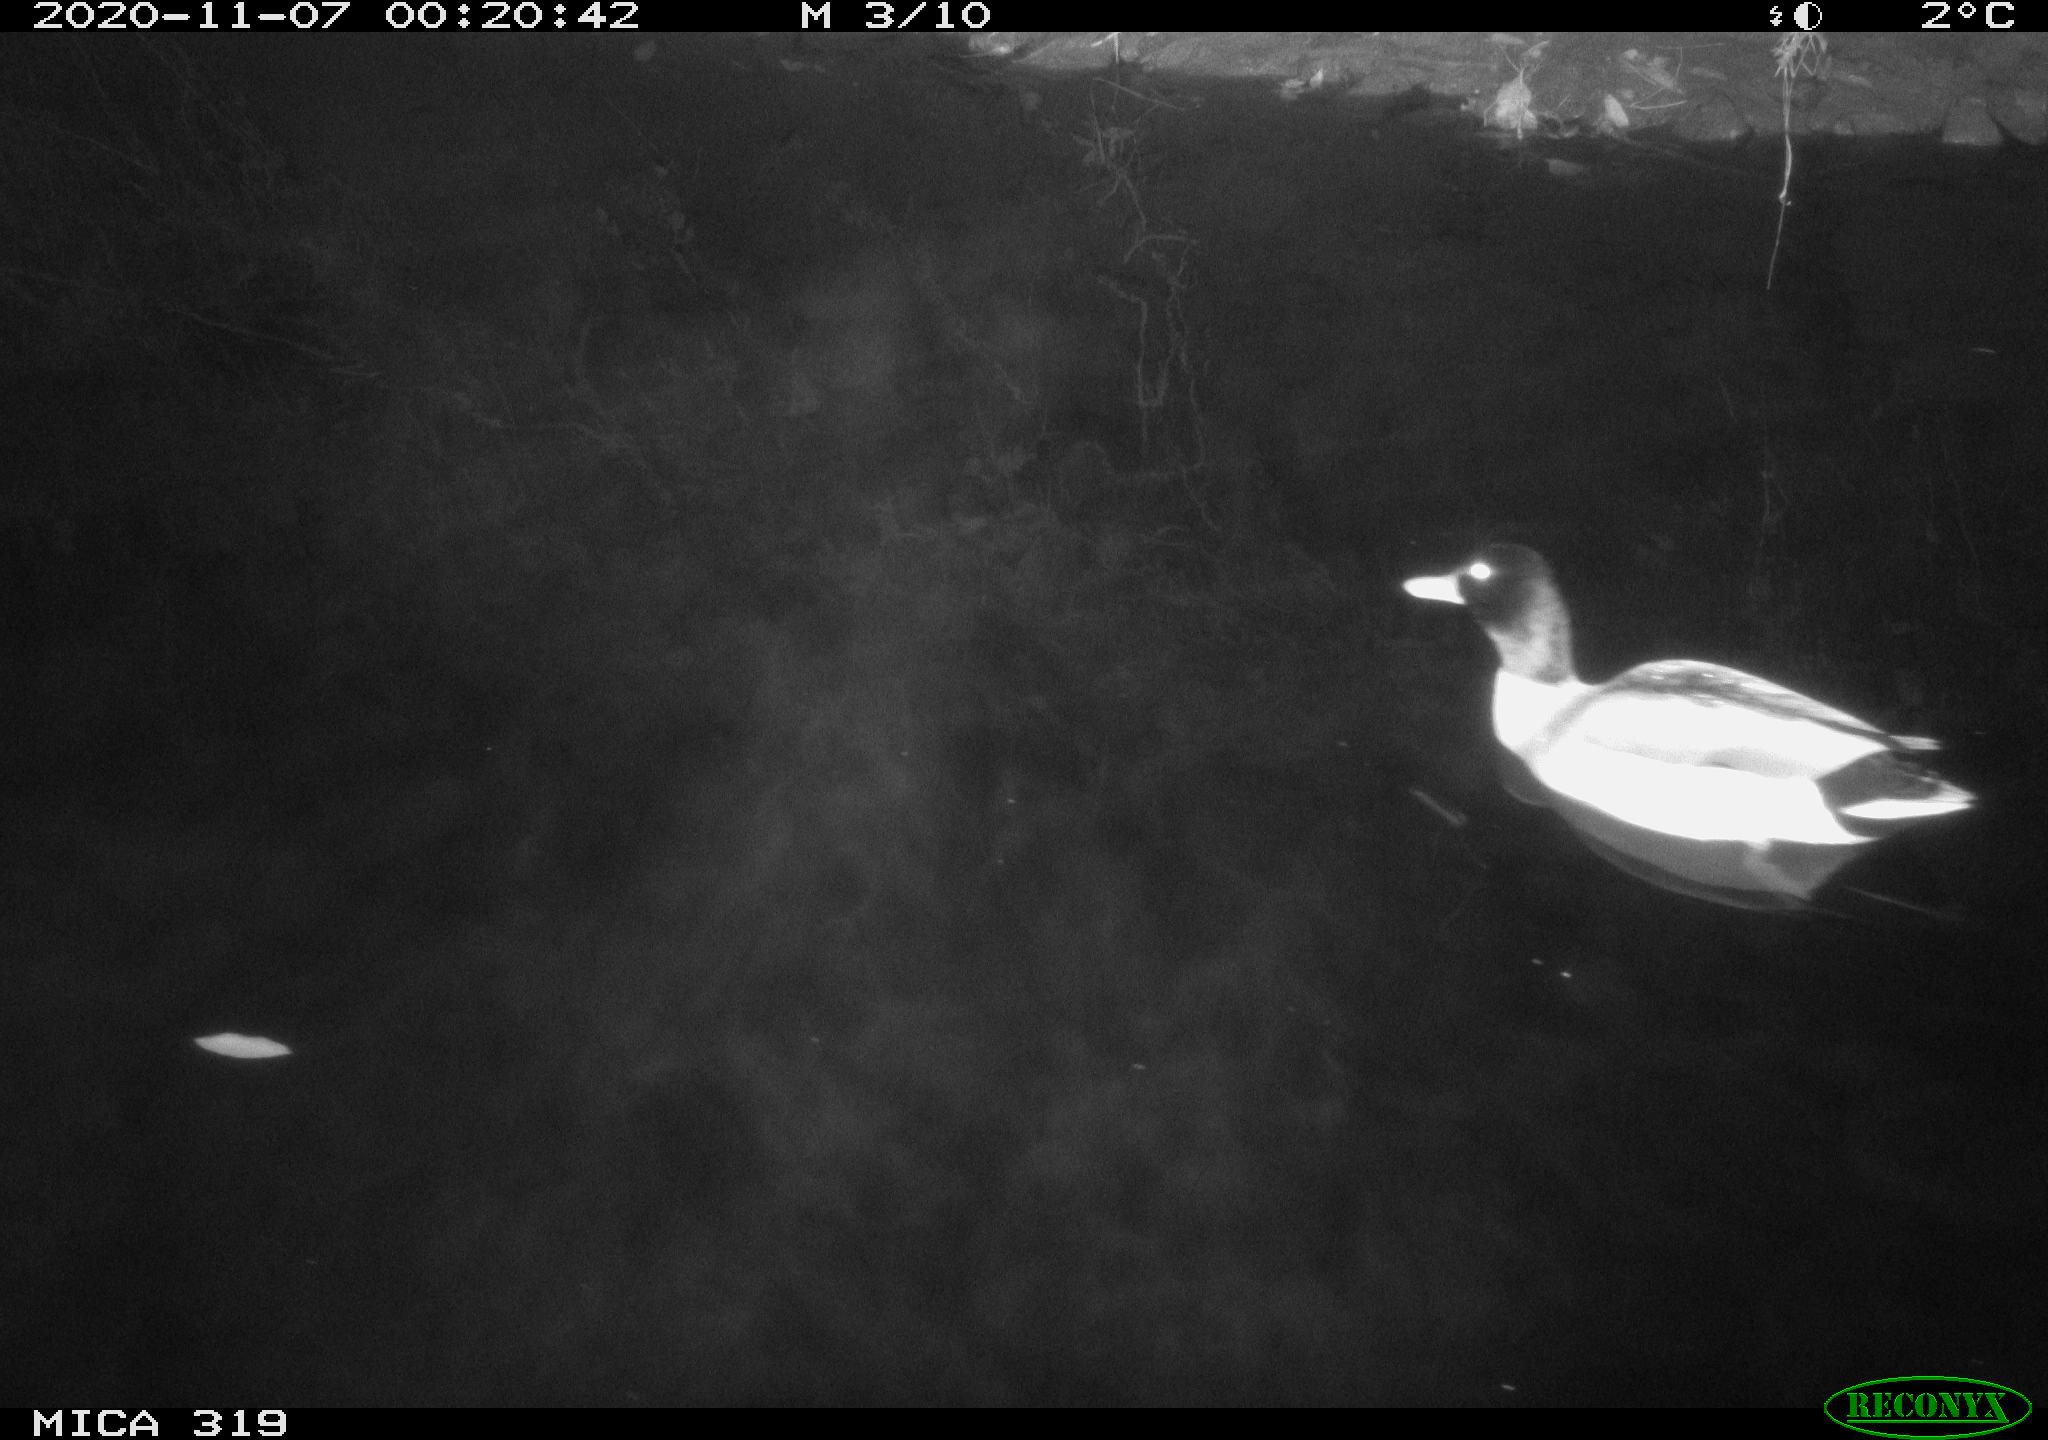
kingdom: Animalia
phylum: Chordata
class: Aves
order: Anseriformes
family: Anatidae
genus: Anas
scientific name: Anas platyrhynchos
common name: Mallard
